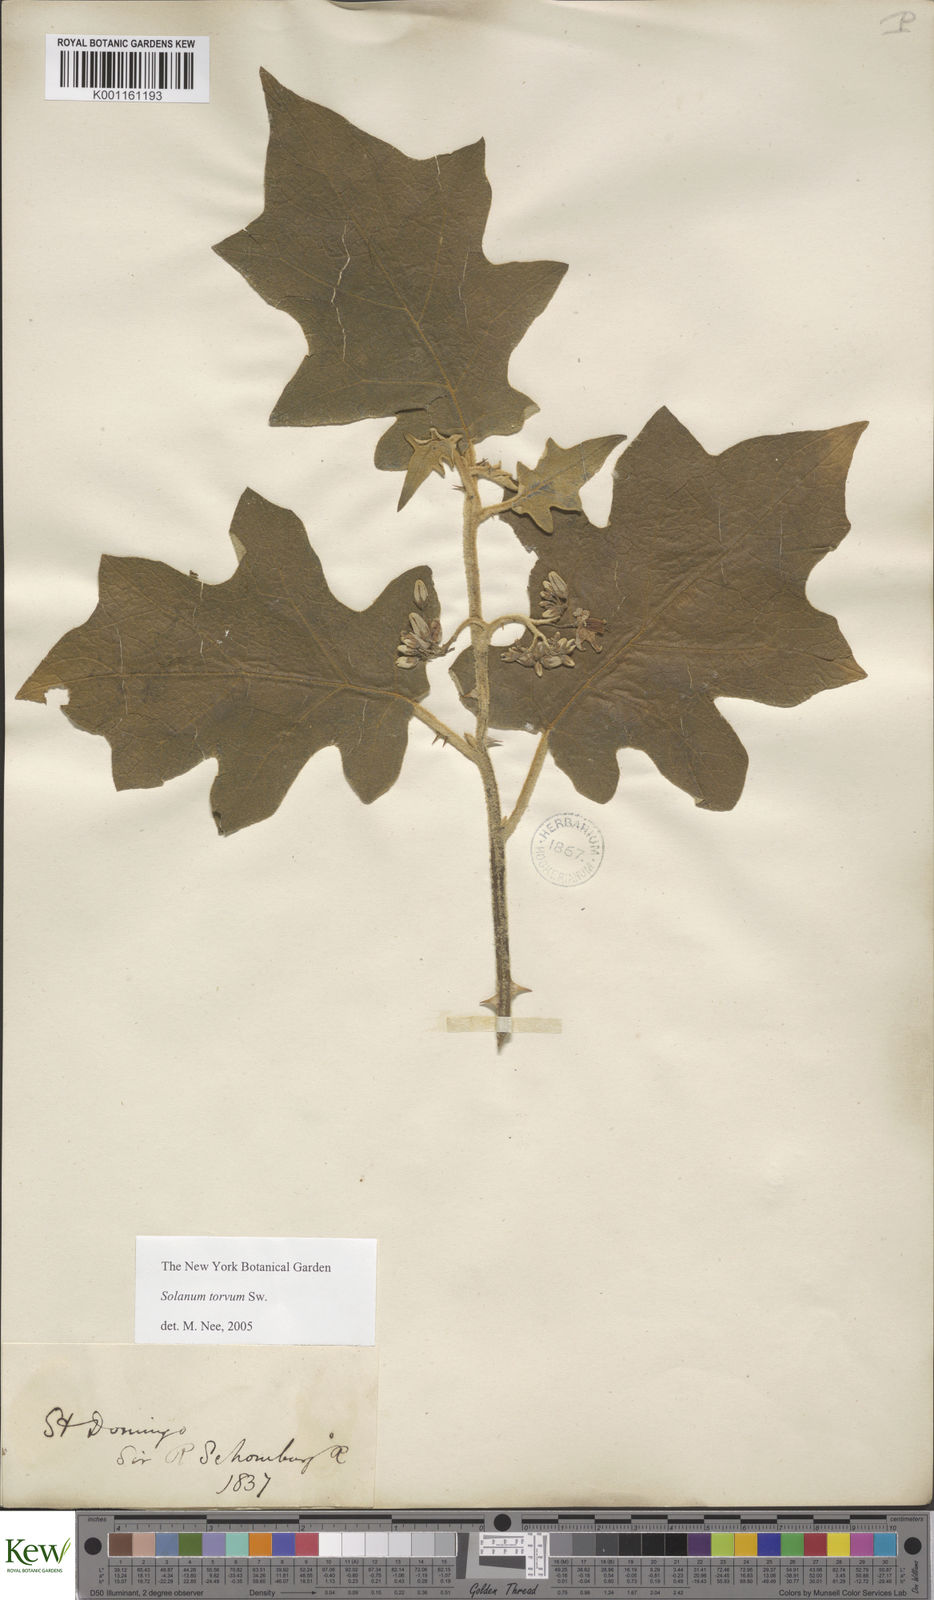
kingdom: Plantae
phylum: Tracheophyta
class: Magnoliopsida
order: Solanales
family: Solanaceae
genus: Solanum
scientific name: Solanum torvum
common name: Turkey berry
